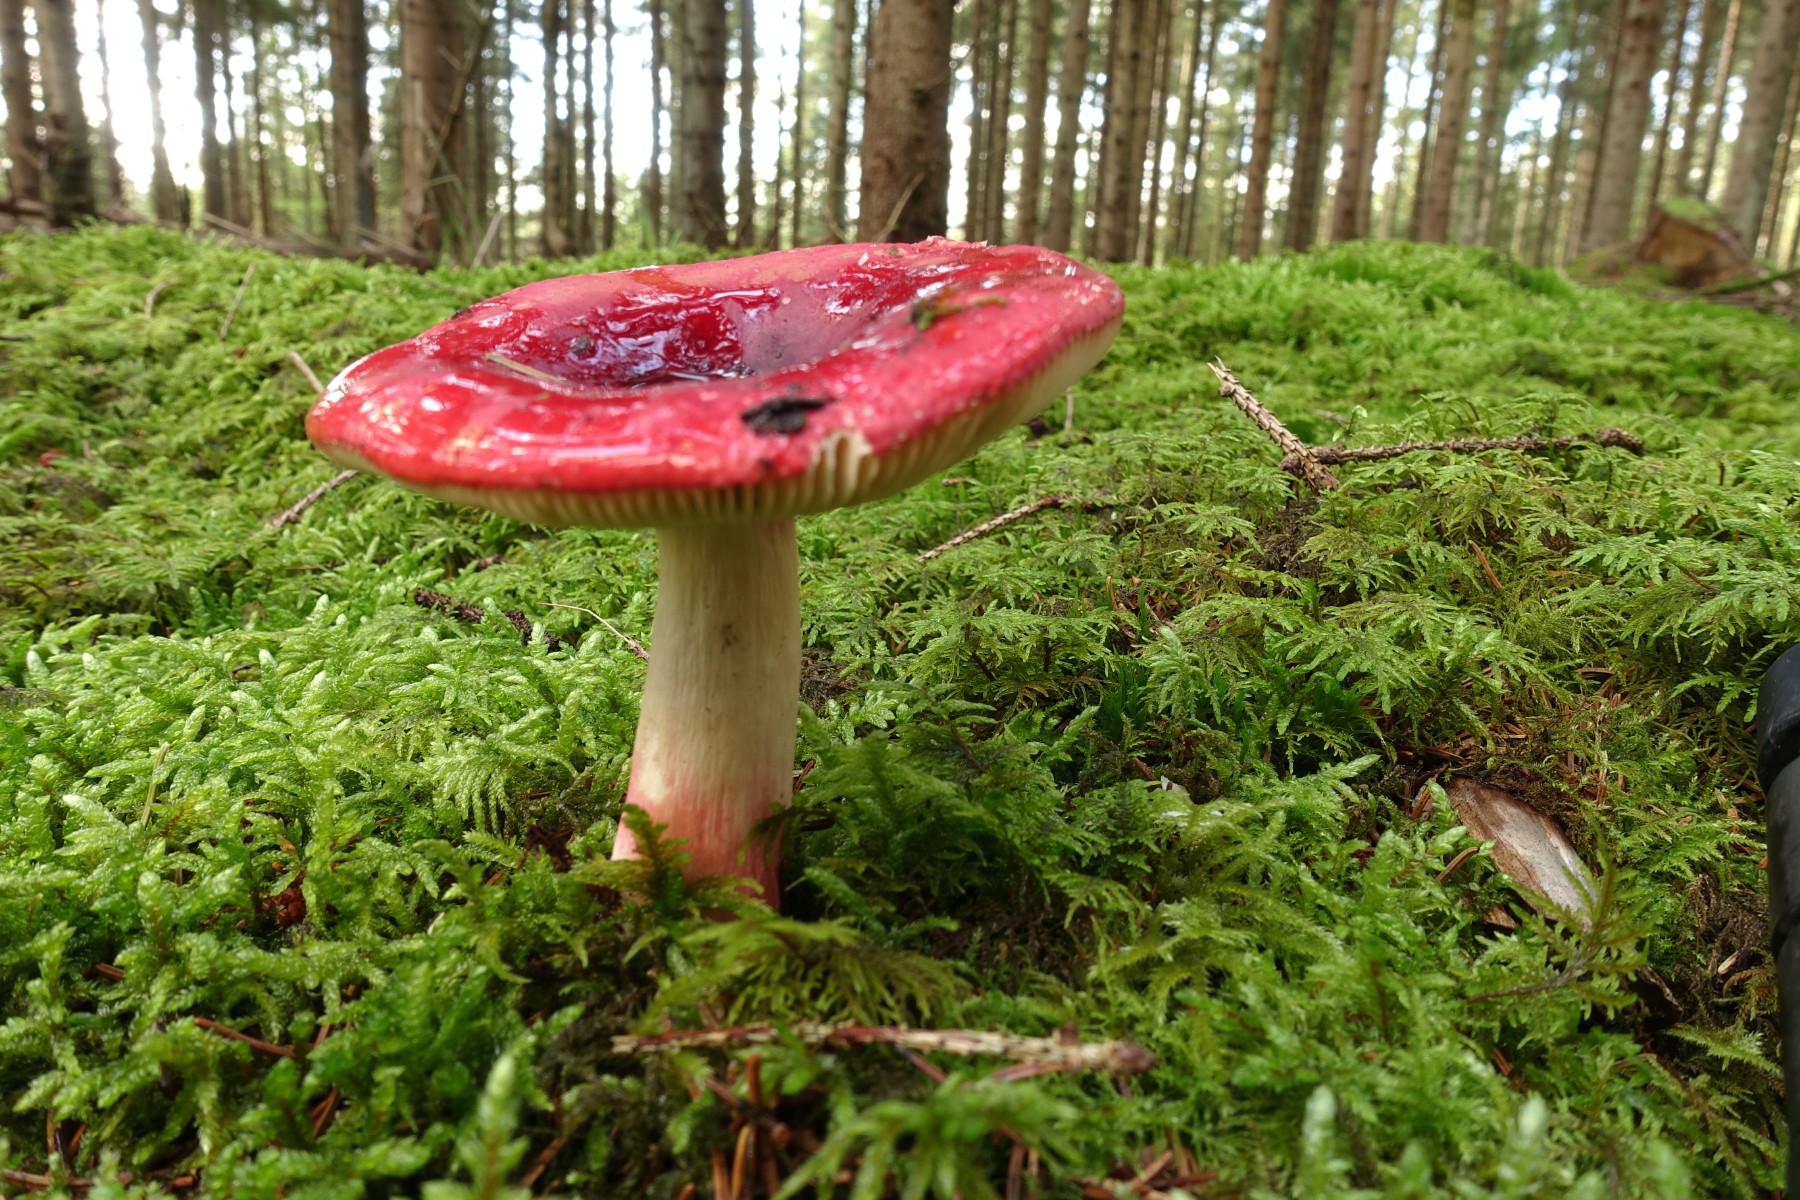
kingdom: Fungi
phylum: Basidiomycota
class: Agaricomycetes
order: Russulales
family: Russulaceae
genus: Russula
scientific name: Russula xerampelina
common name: hummer-skørhat
